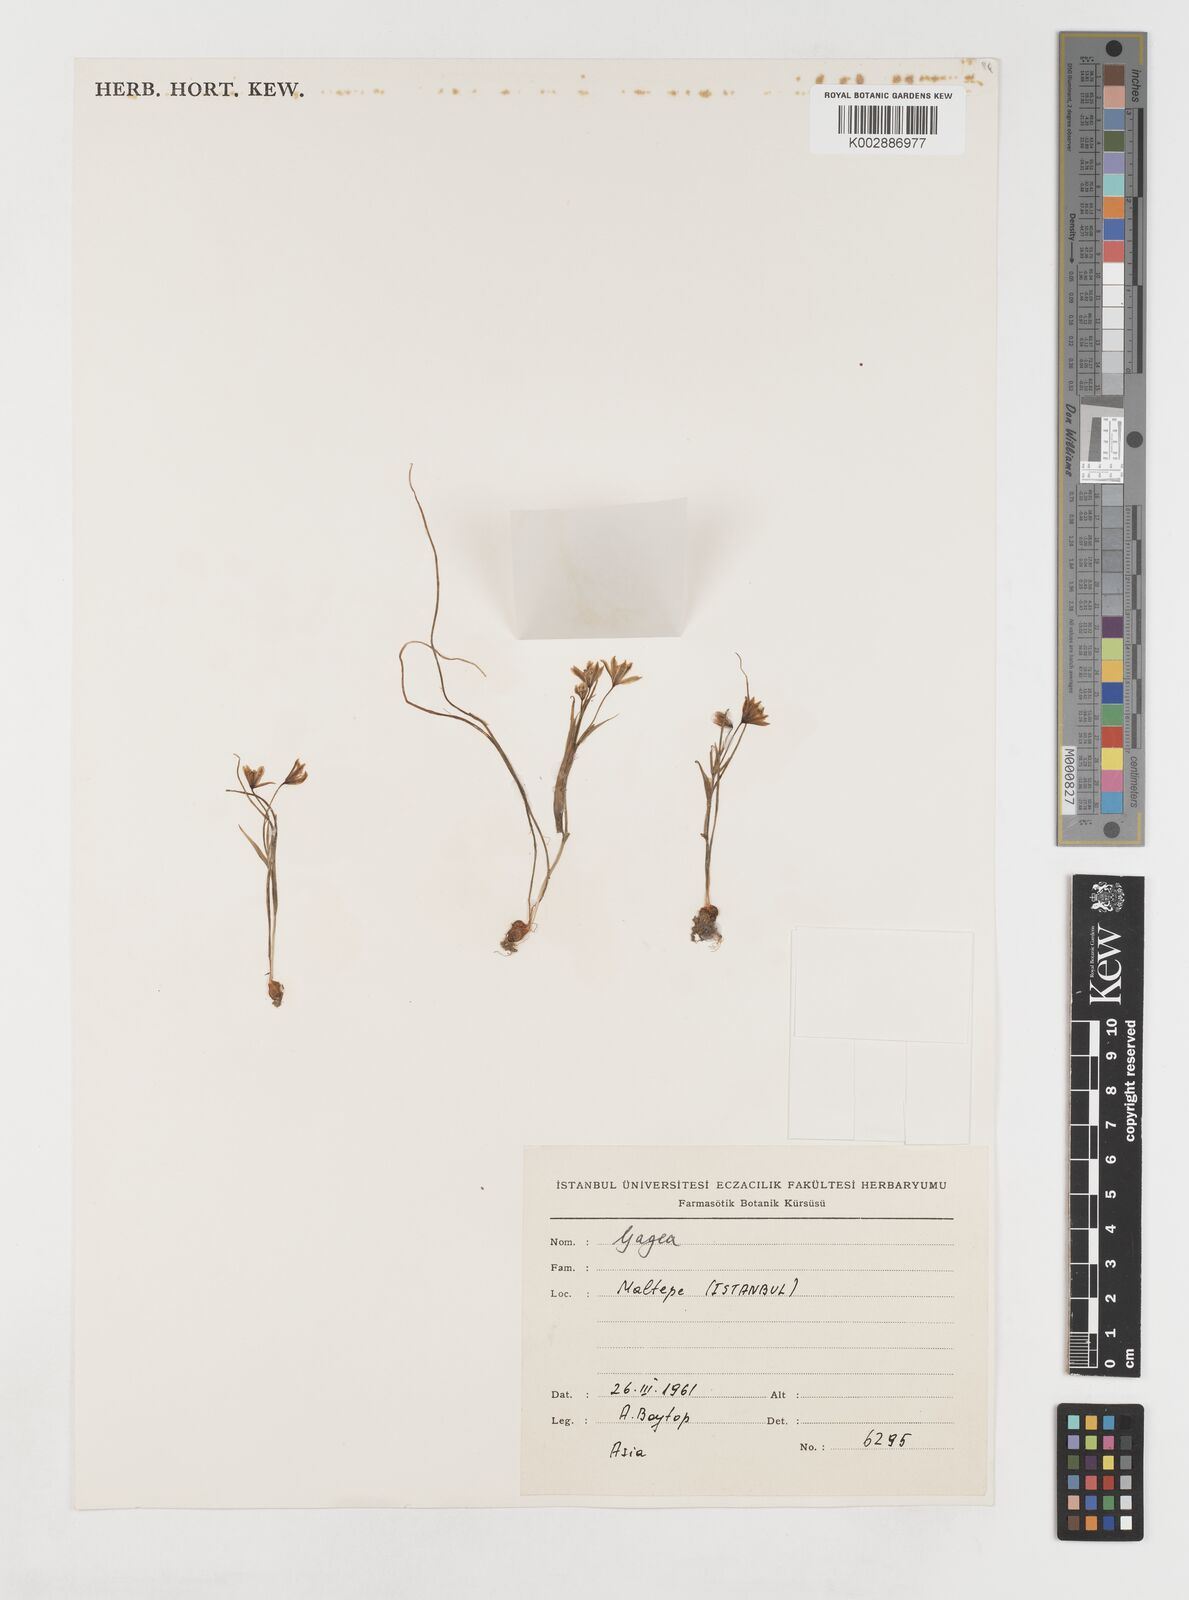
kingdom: Plantae
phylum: Tracheophyta
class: Liliopsida
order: Liliales
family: Liliaceae
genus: Gagea
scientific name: Gagea amblyopetala
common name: Blunt-flowered gagea
